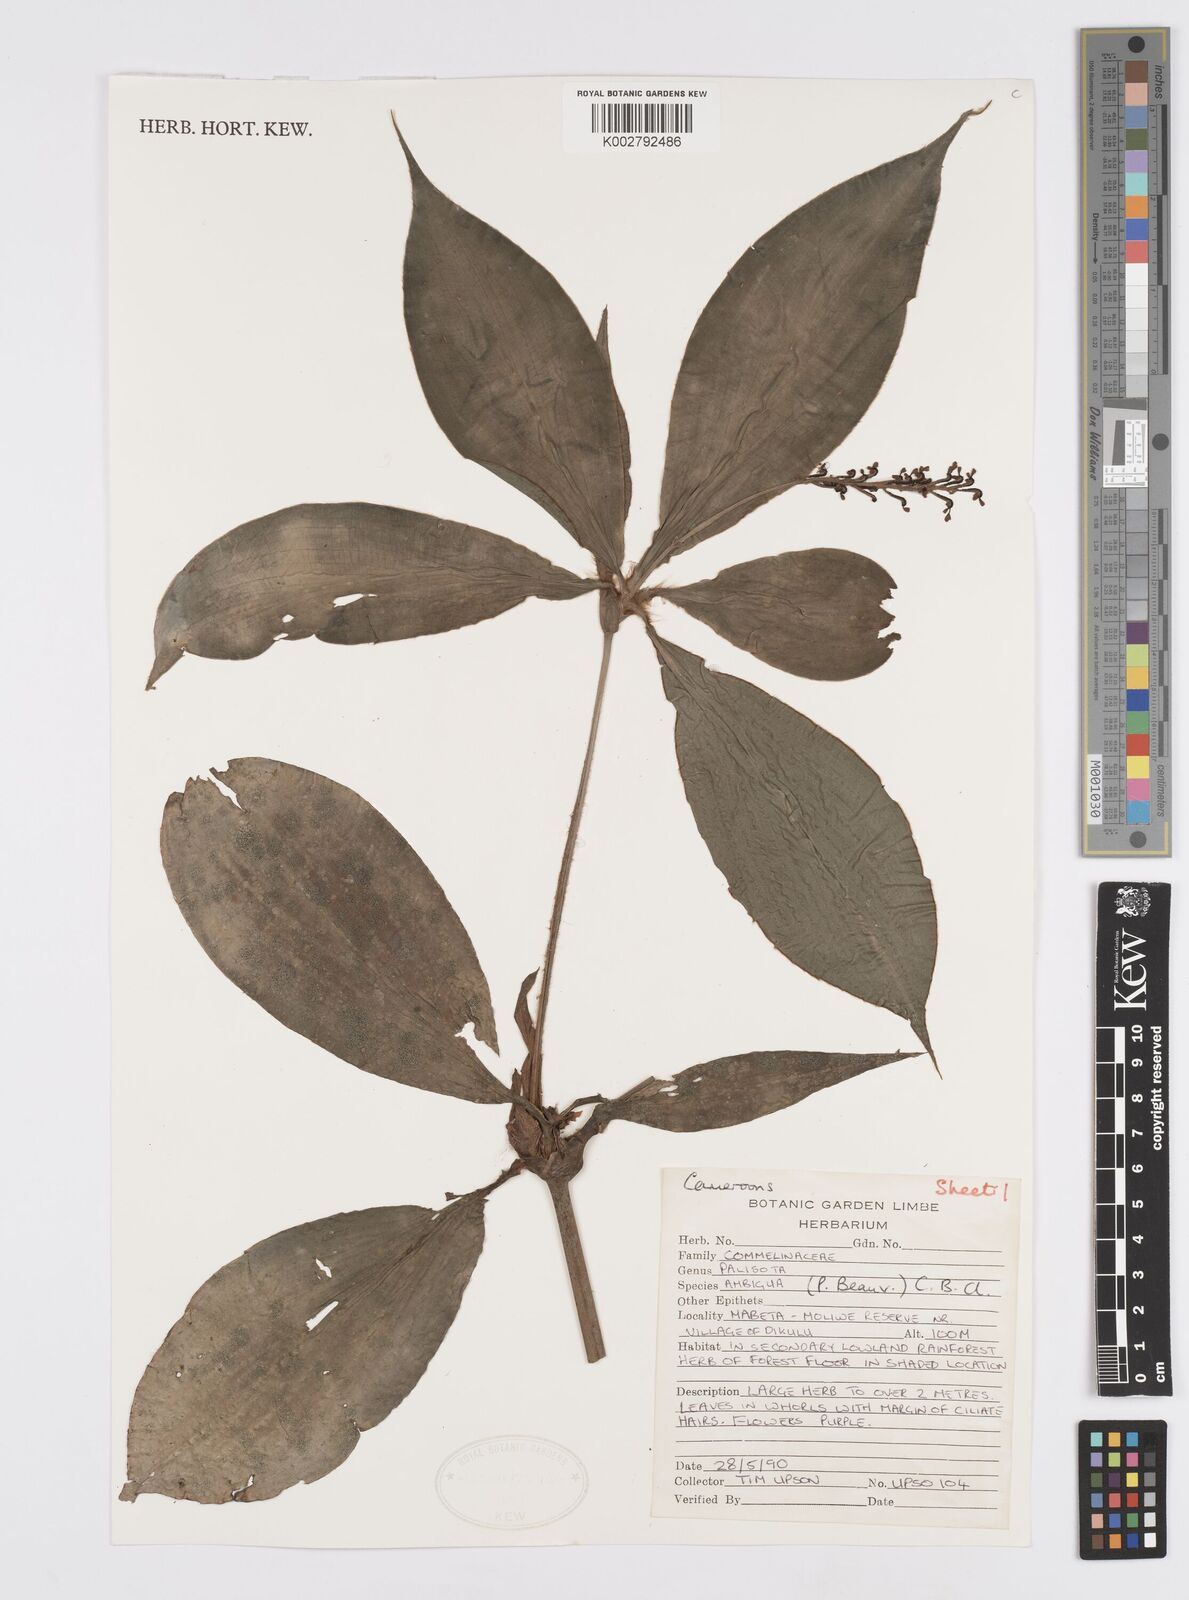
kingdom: Plantae
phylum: Tracheophyta
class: Liliopsida
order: Commelinales
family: Commelinaceae
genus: Palisota
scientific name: Palisota ambigua
